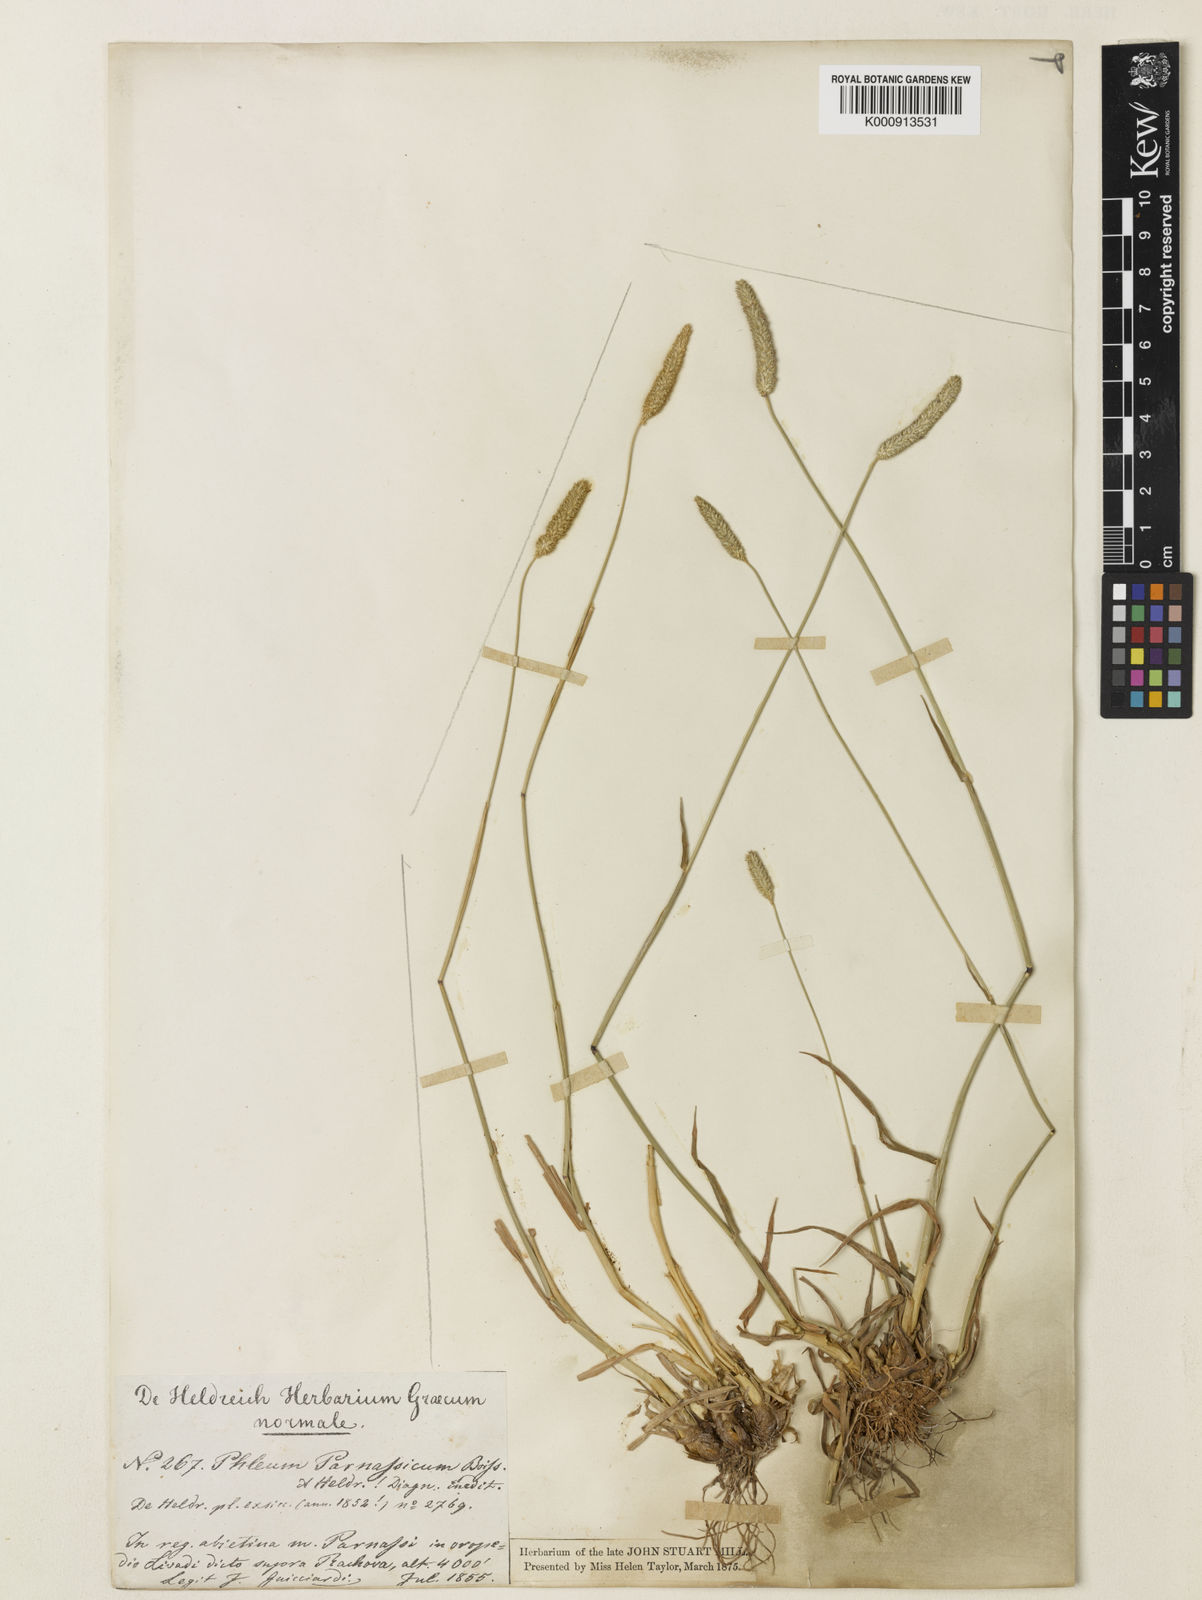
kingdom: Plantae
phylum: Tracheophyta
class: Liliopsida
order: Poales
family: Poaceae
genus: Phleum
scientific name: Phleum pratense
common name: Timothy grass
